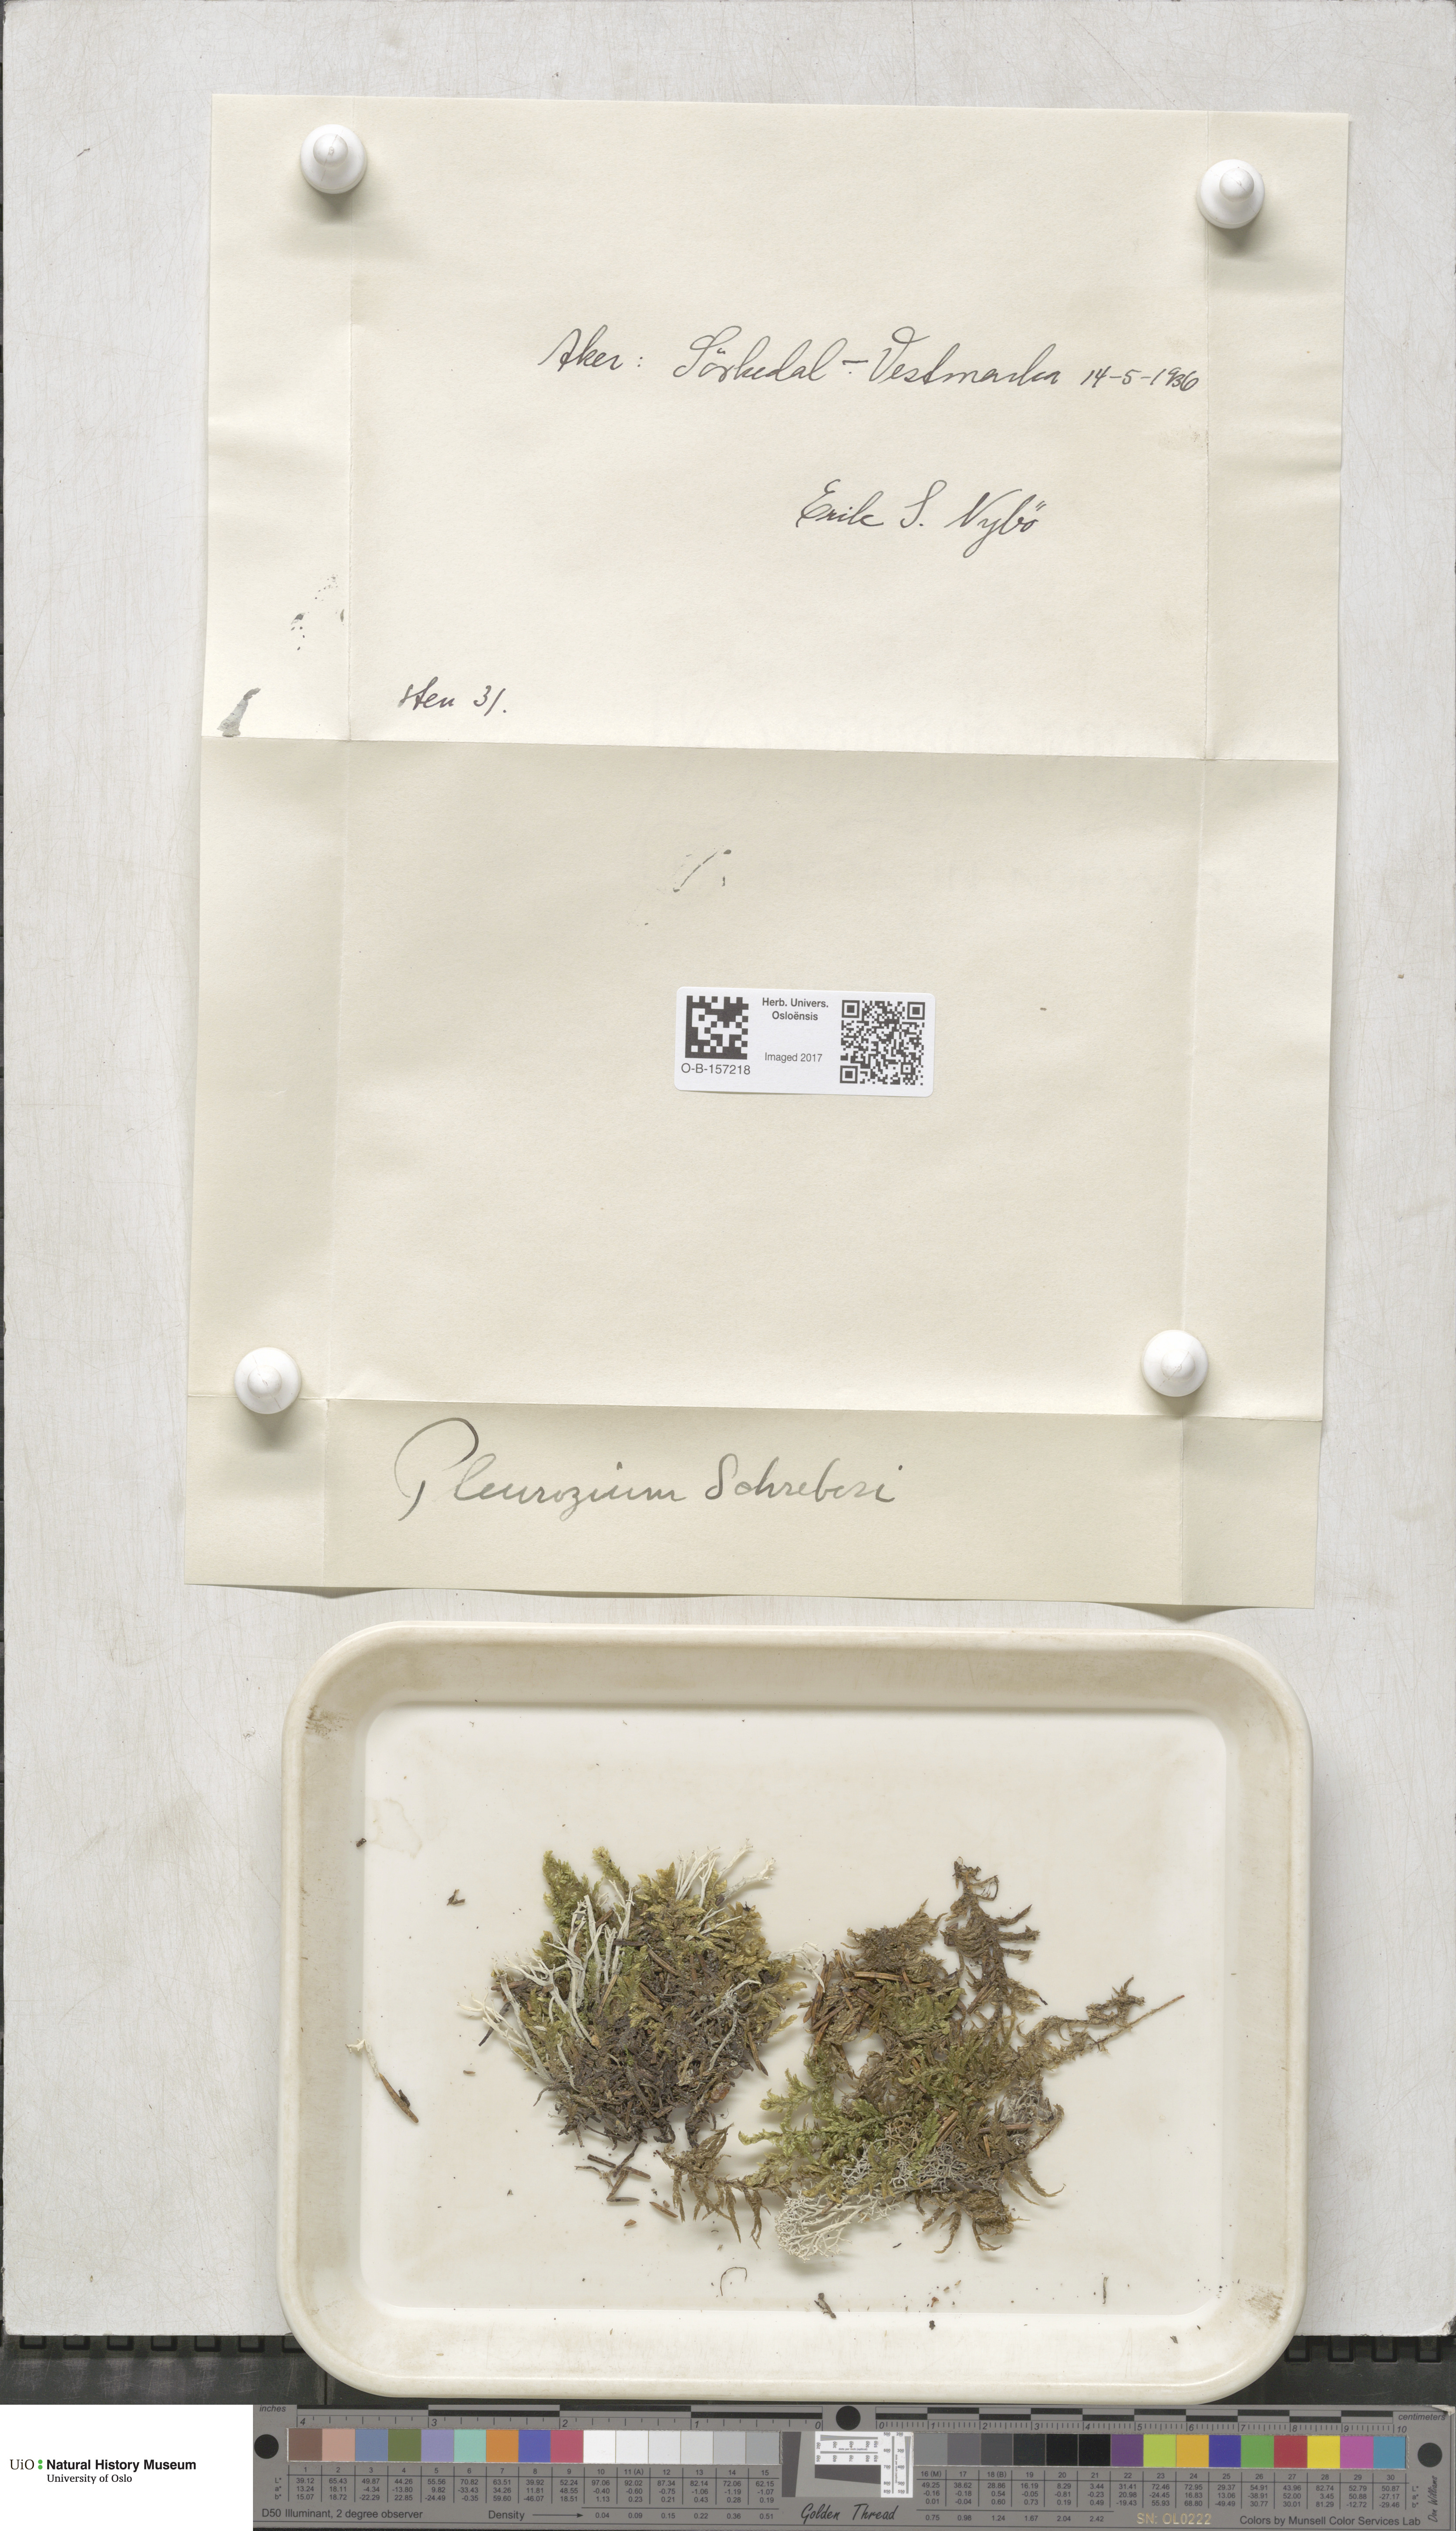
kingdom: Plantae
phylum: Bryophyta
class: Bryopsida
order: Hypnales
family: Hylocomiaceae
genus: Pleurozium
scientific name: Pleurozium schreberi
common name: Red-stemmed feather moss
